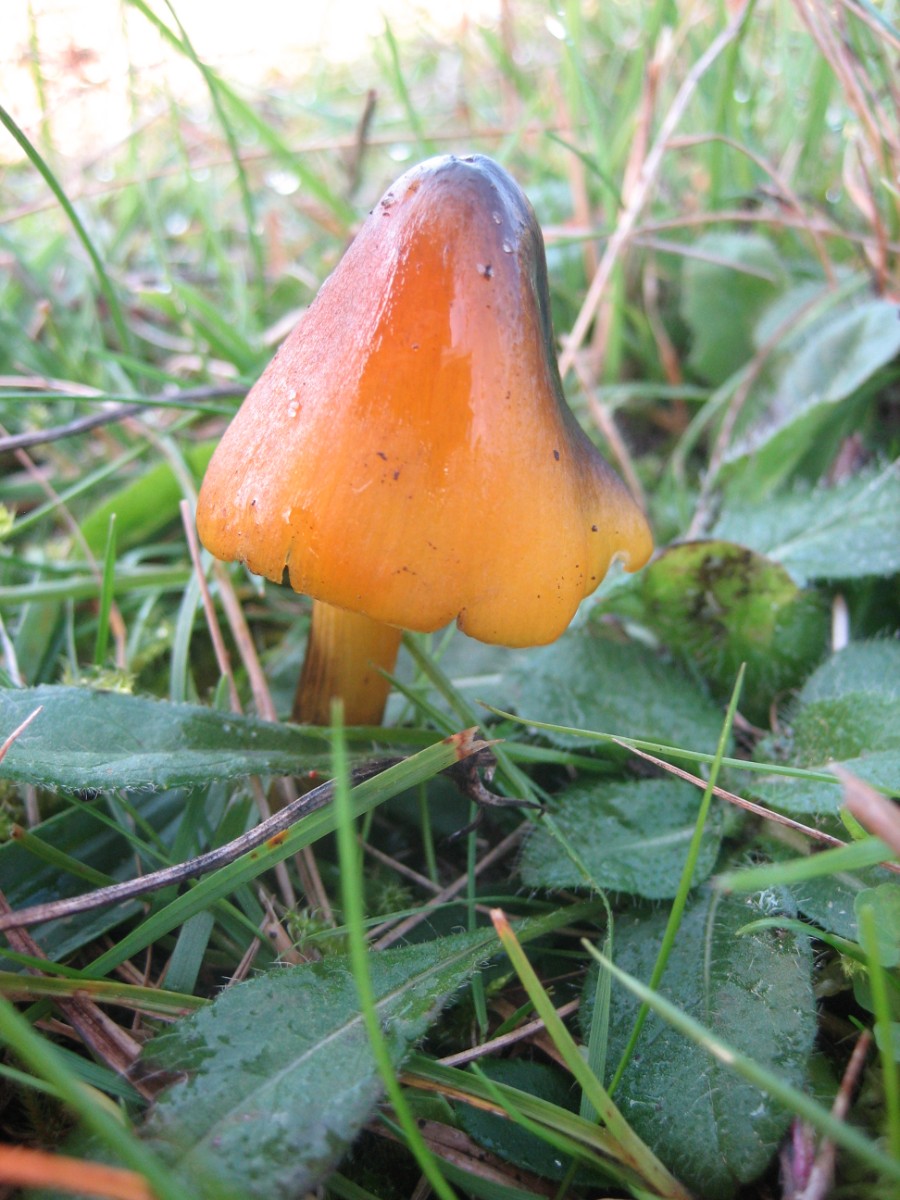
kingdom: Fungi
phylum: Basidiomycota
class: Agaricomycetes
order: Agaricales
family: Hygrophoraceae
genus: Hygrocybe
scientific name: Hygrocybe conica
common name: kegle-vokshat
